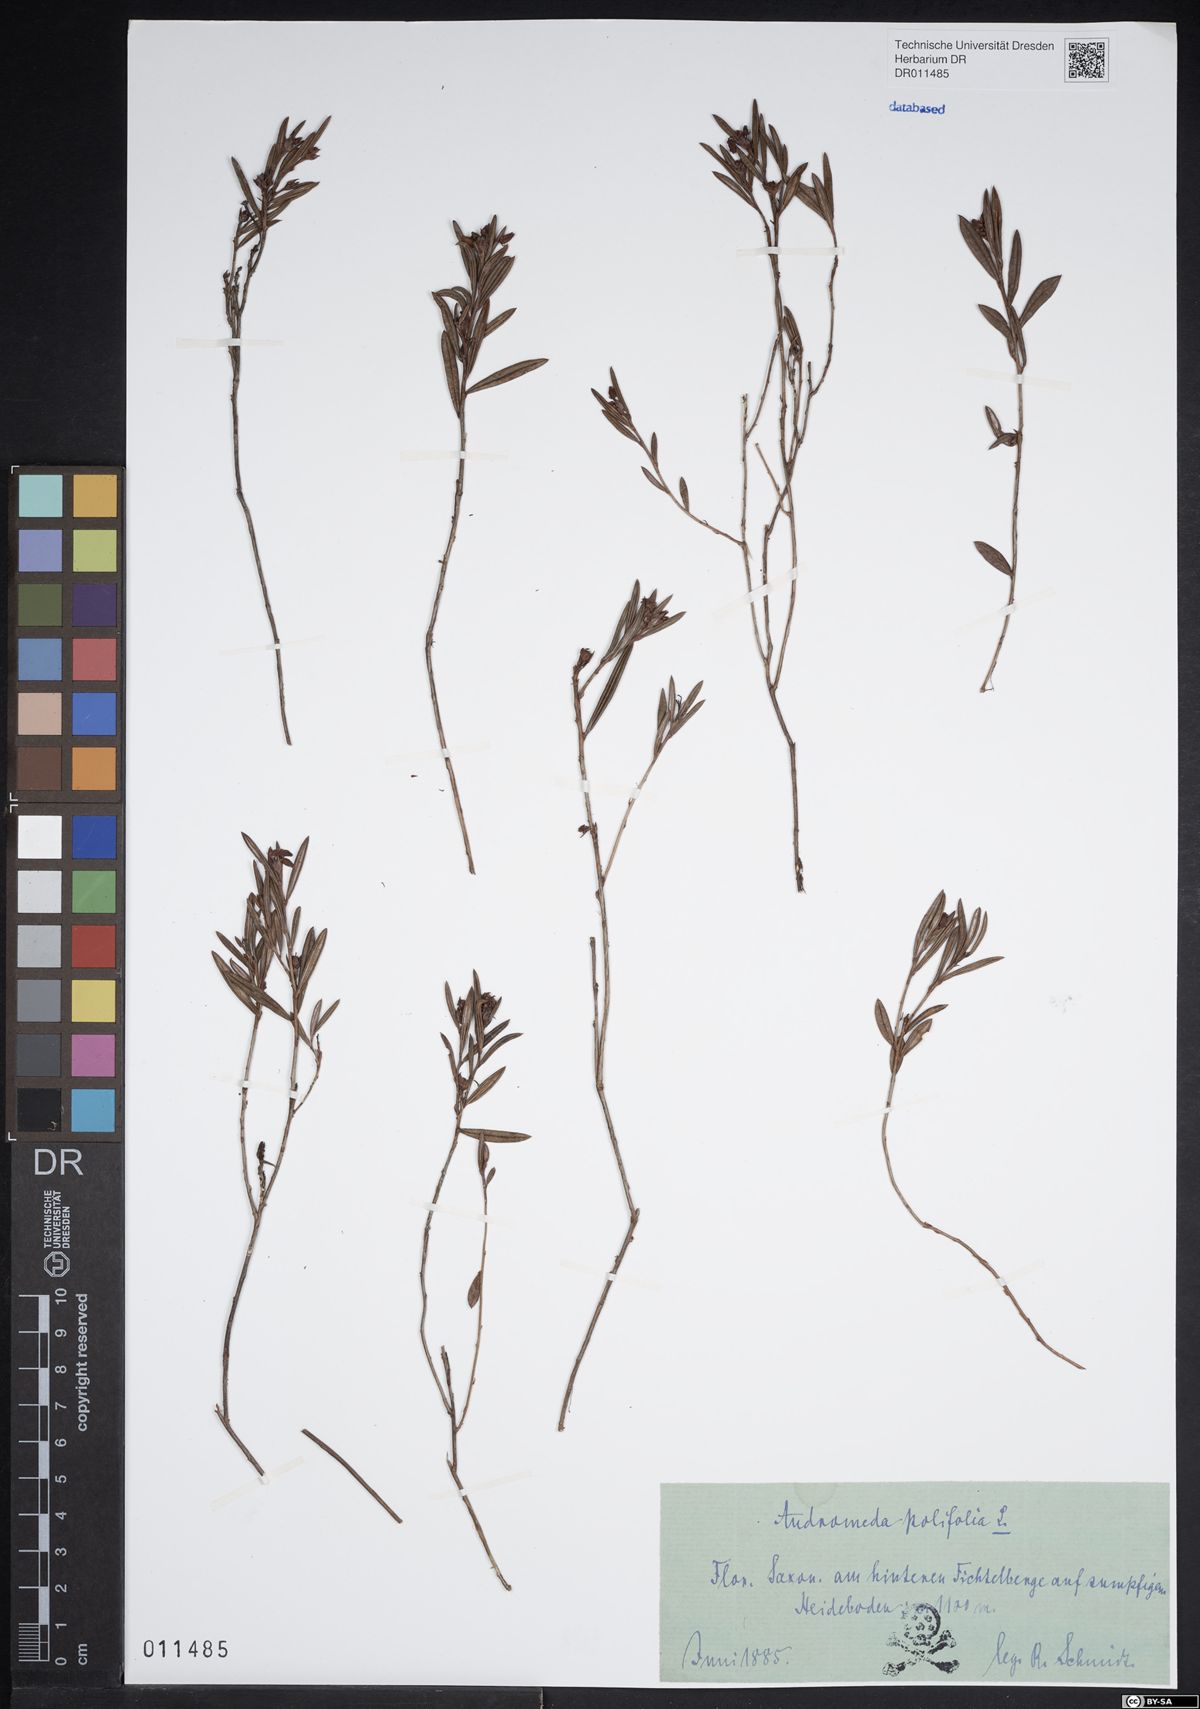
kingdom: Plantae
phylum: Tracheophyta
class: Magnoliopsida
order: Ericales
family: Ericaceae
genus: Andromeda
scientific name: Andromeda polifolia
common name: Bog-rosemary
